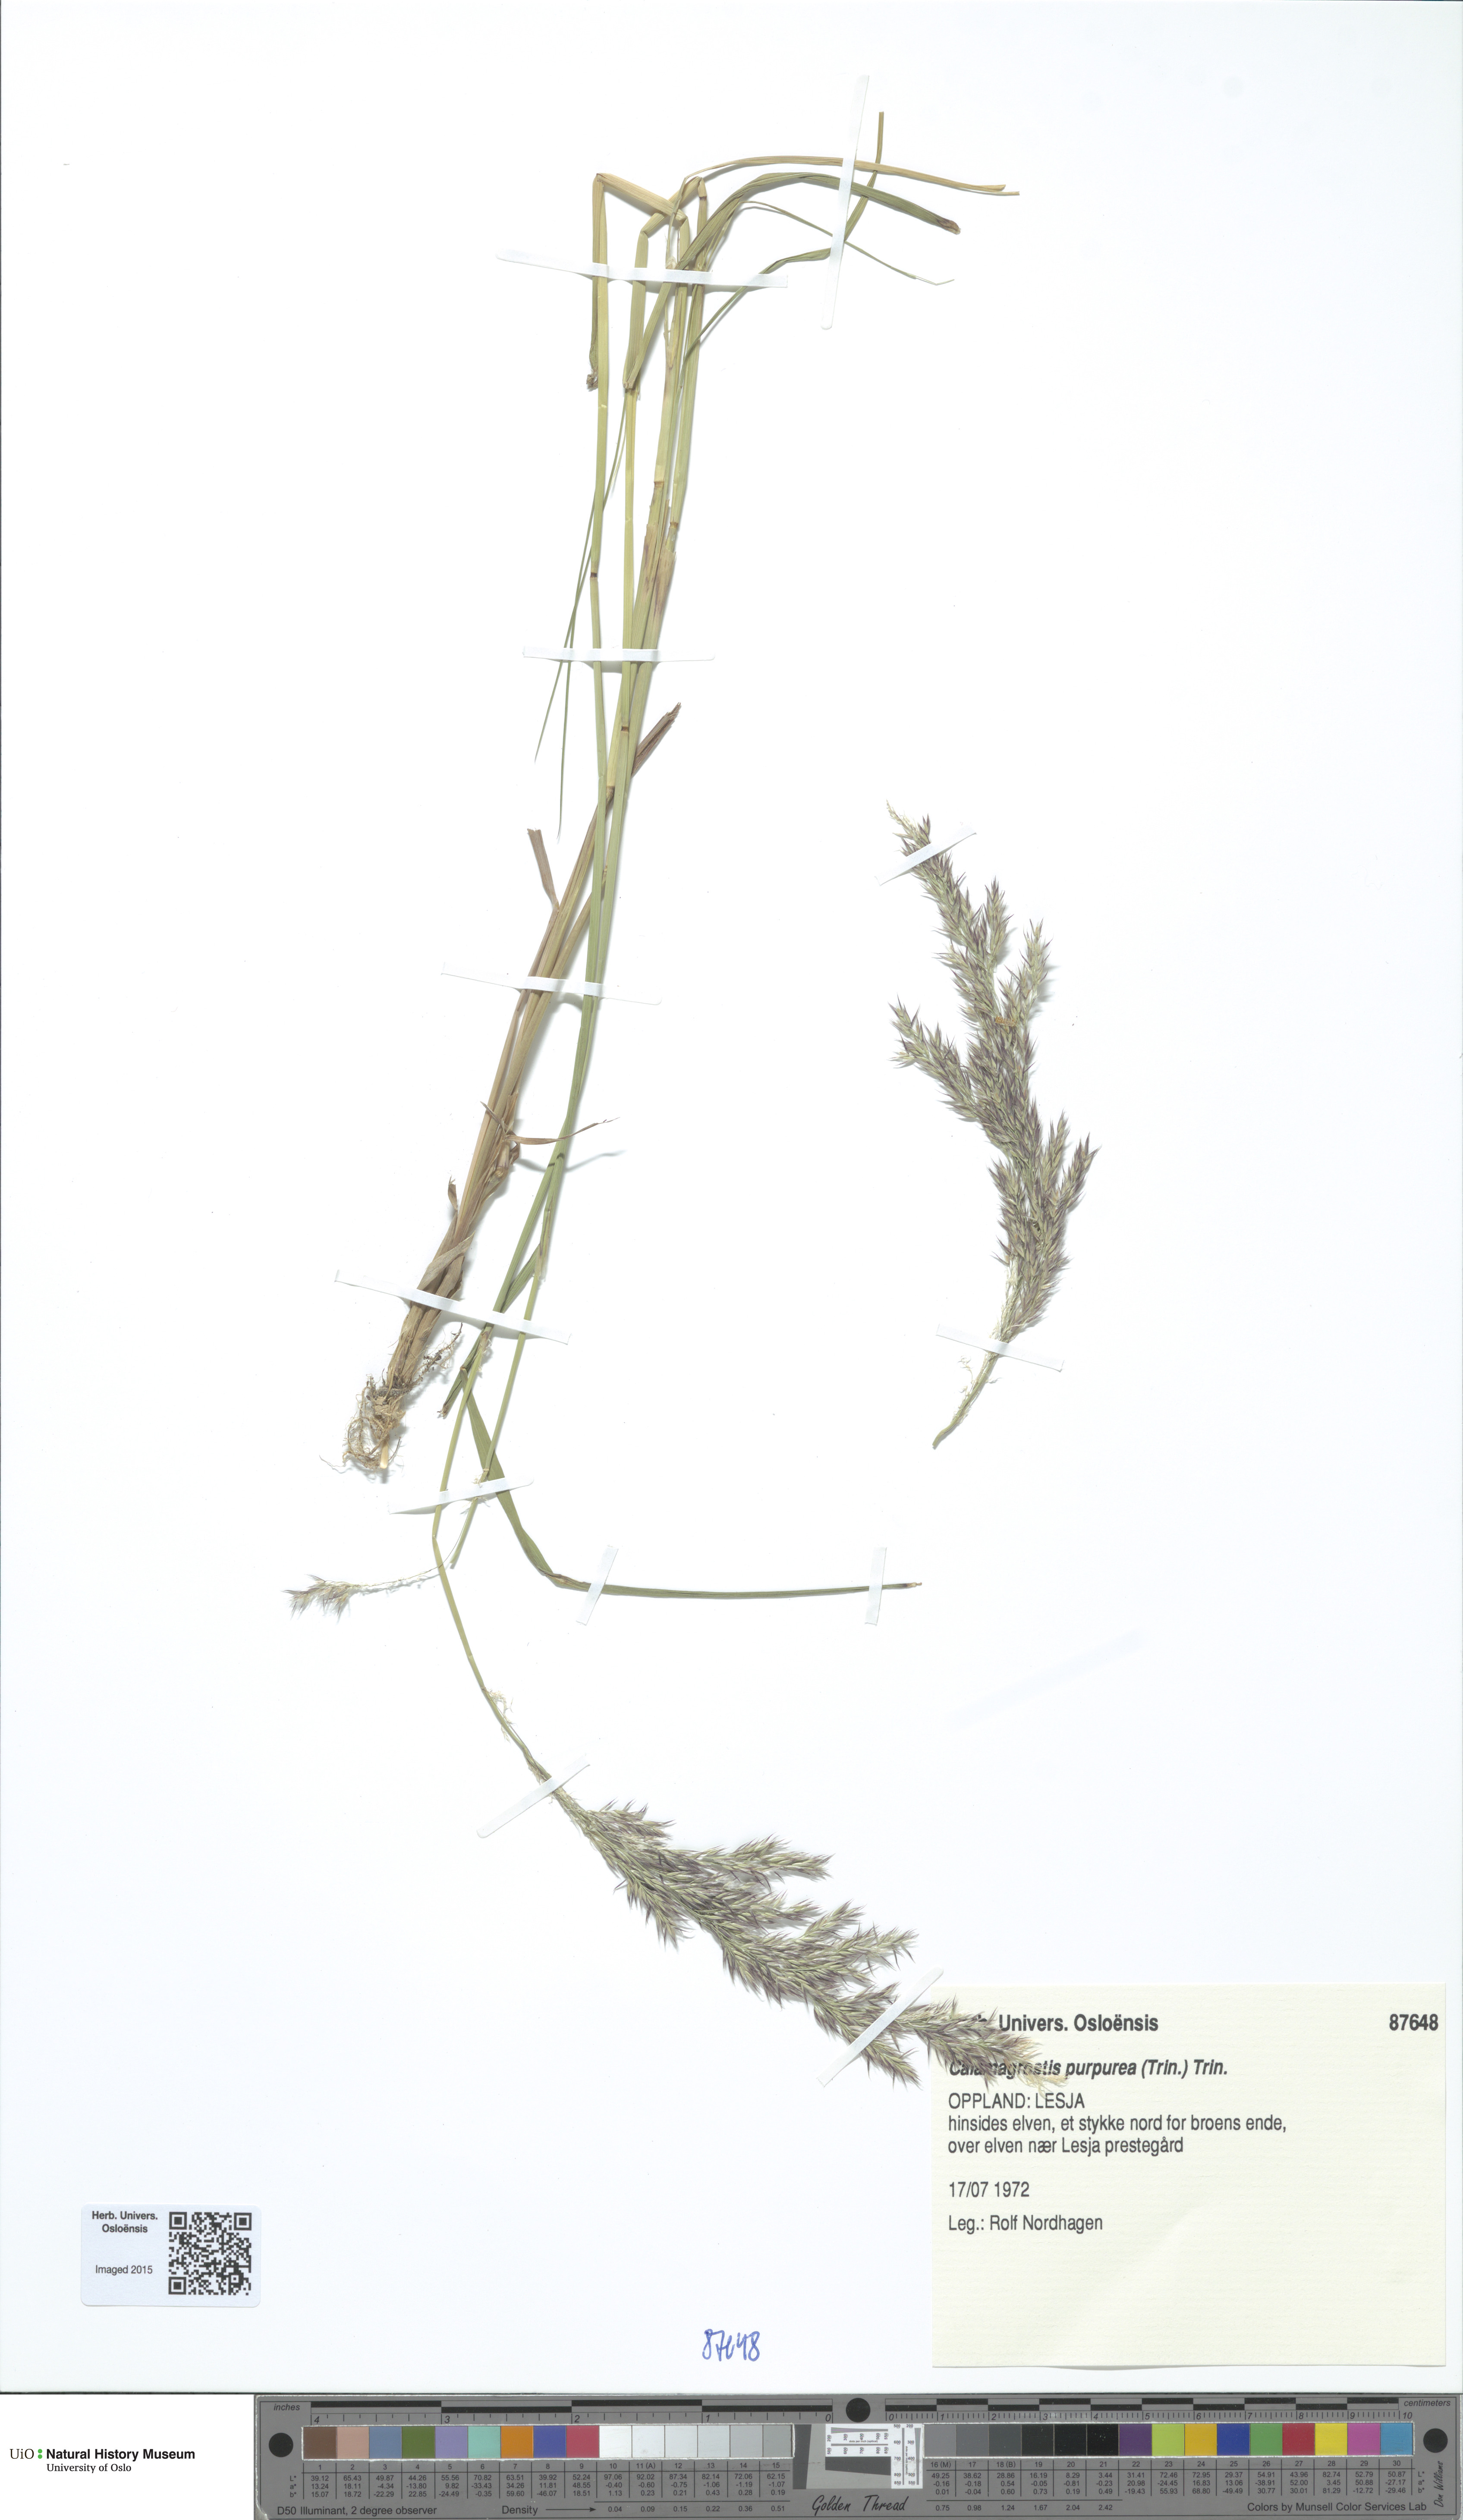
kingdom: Plantae
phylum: Tracheophyta
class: Liliopsida
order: Poales
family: Poaceae
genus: Calamagrostis
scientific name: Calamagrostis purpurea
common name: Scandinavian small-reed
